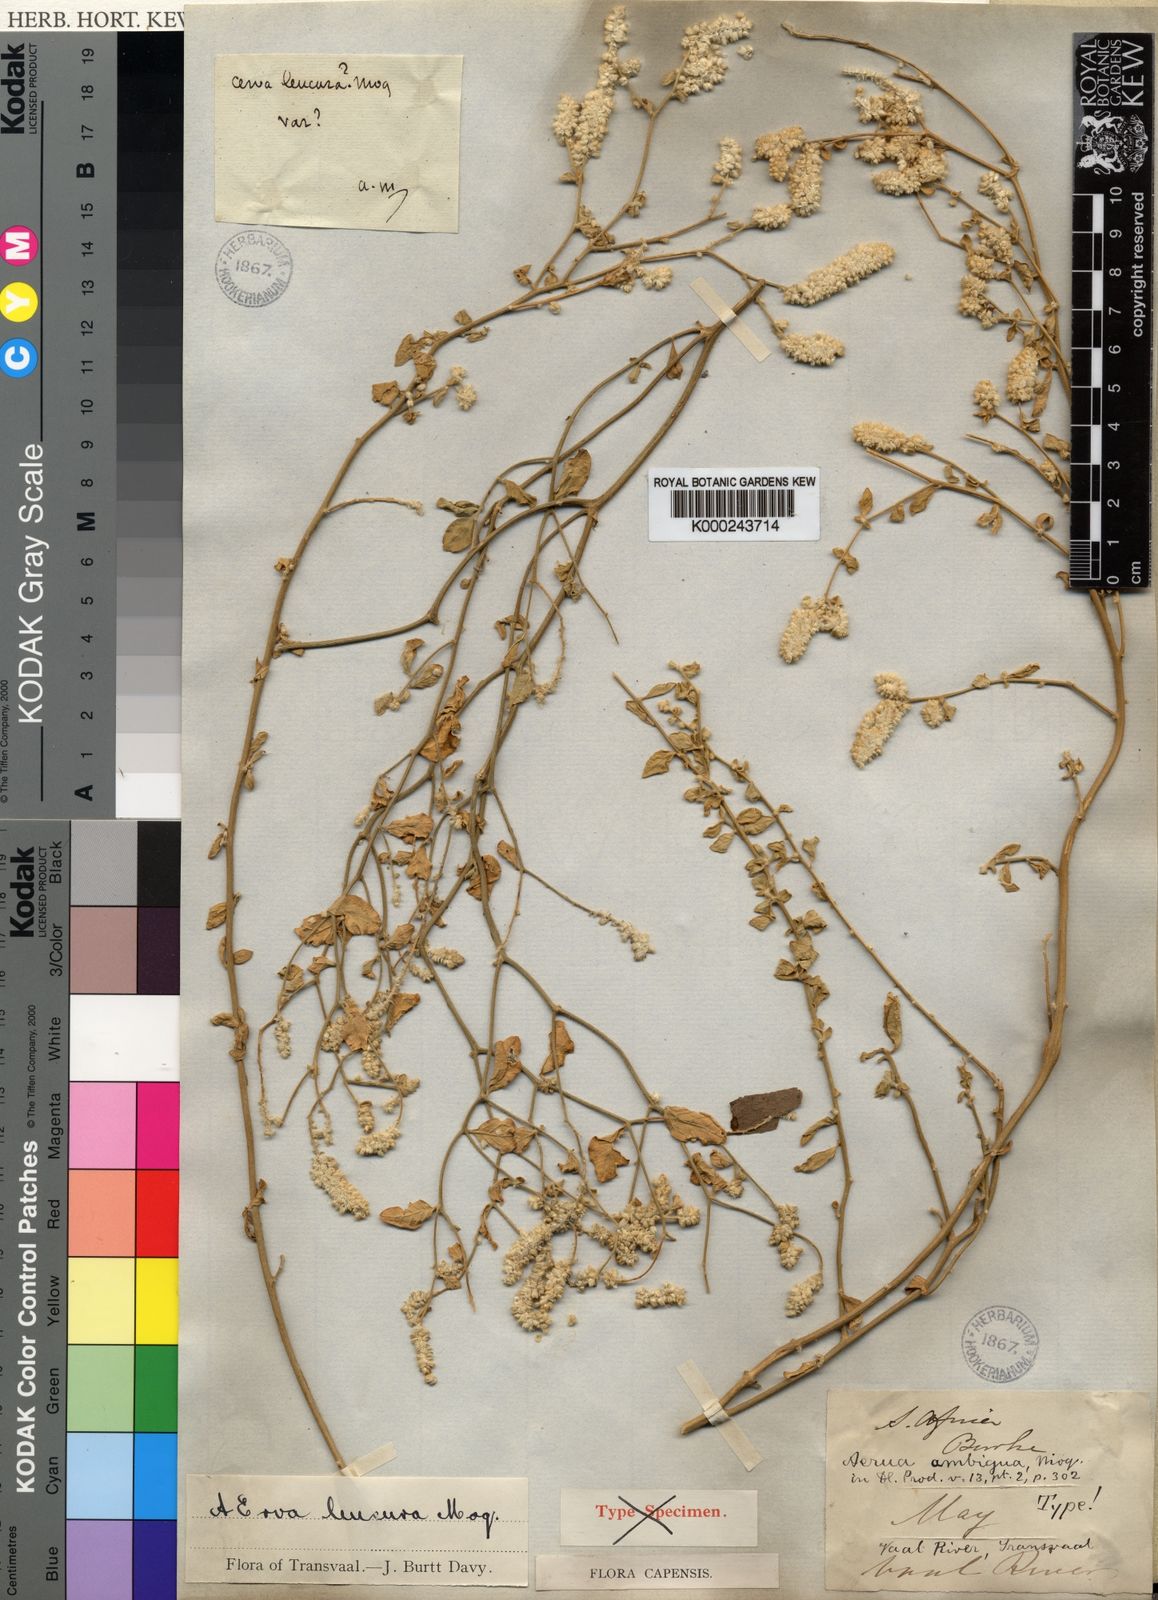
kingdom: Plantae
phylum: Tracheophyta
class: Magnoliopsida
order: Caryophyllales
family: Amaranthaceae
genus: Ouret
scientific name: Ouret leucura
